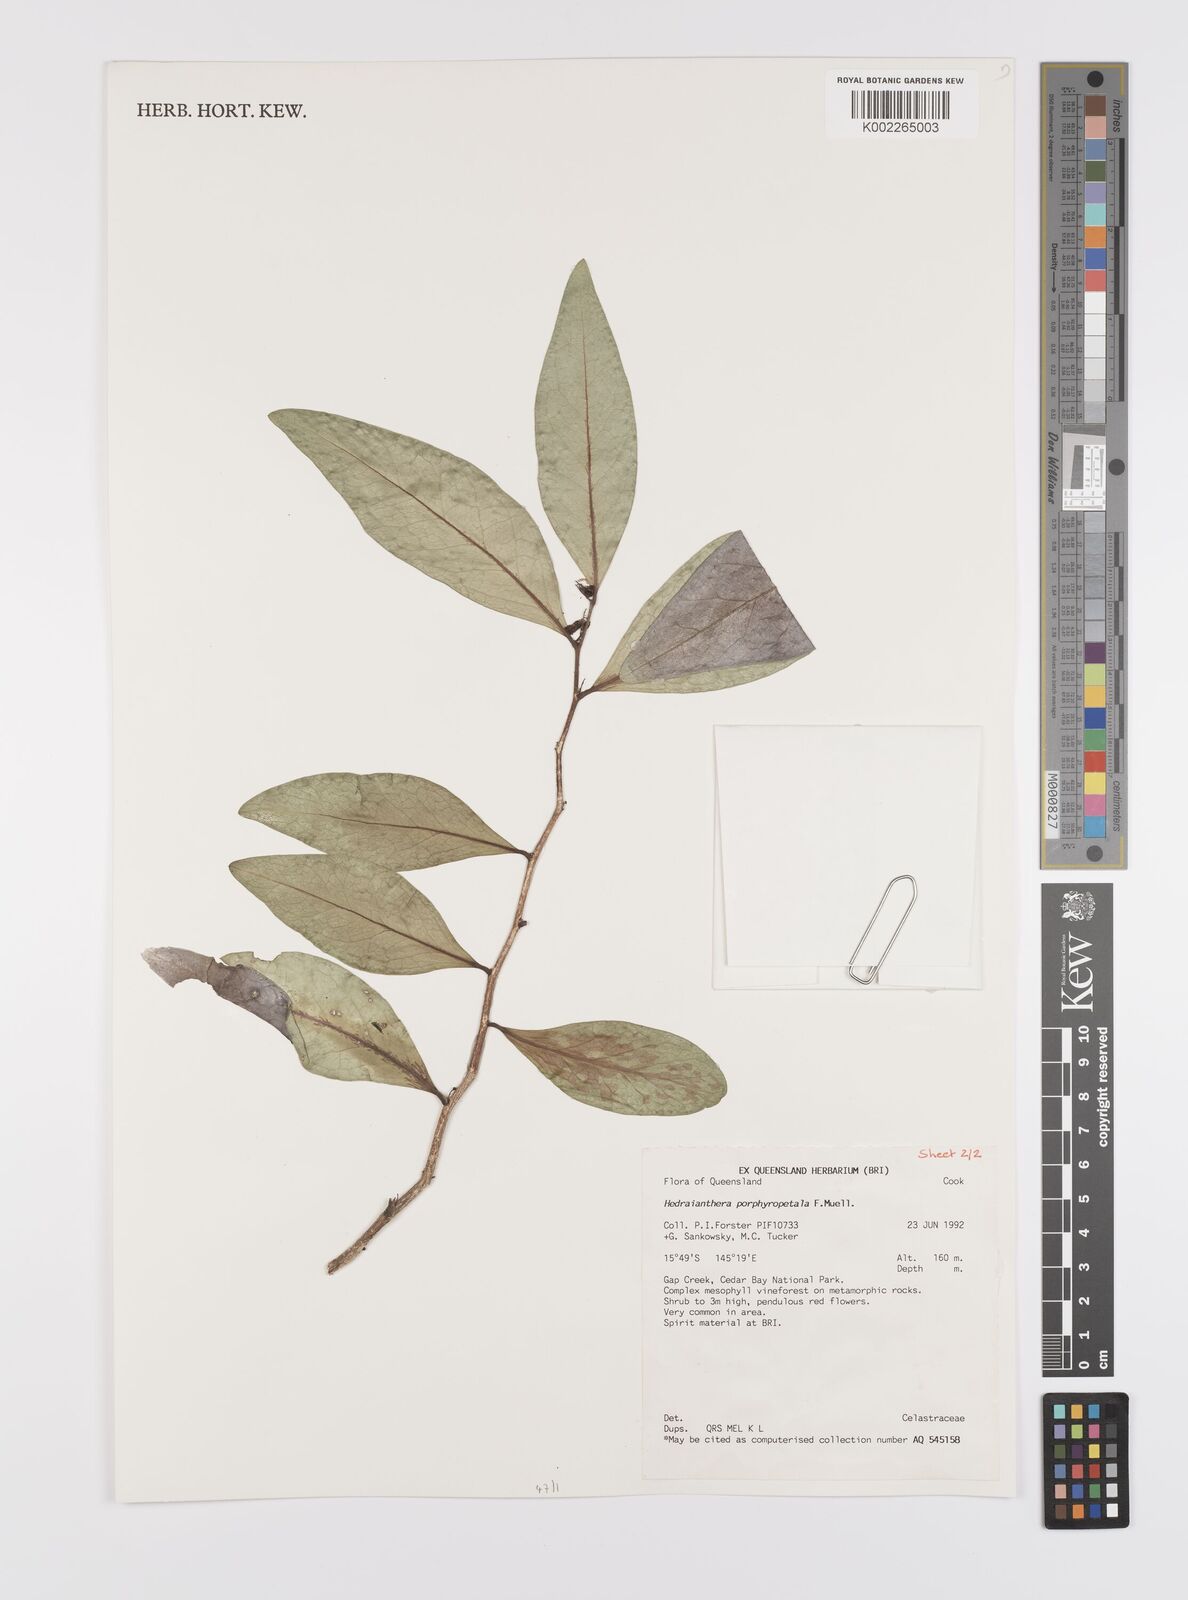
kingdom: Plantae
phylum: Tracheophyta
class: Magnoliopsida
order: Celastrales
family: Celastraceae
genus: Hedraianthera
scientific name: Hedraianthera porphyropetala
